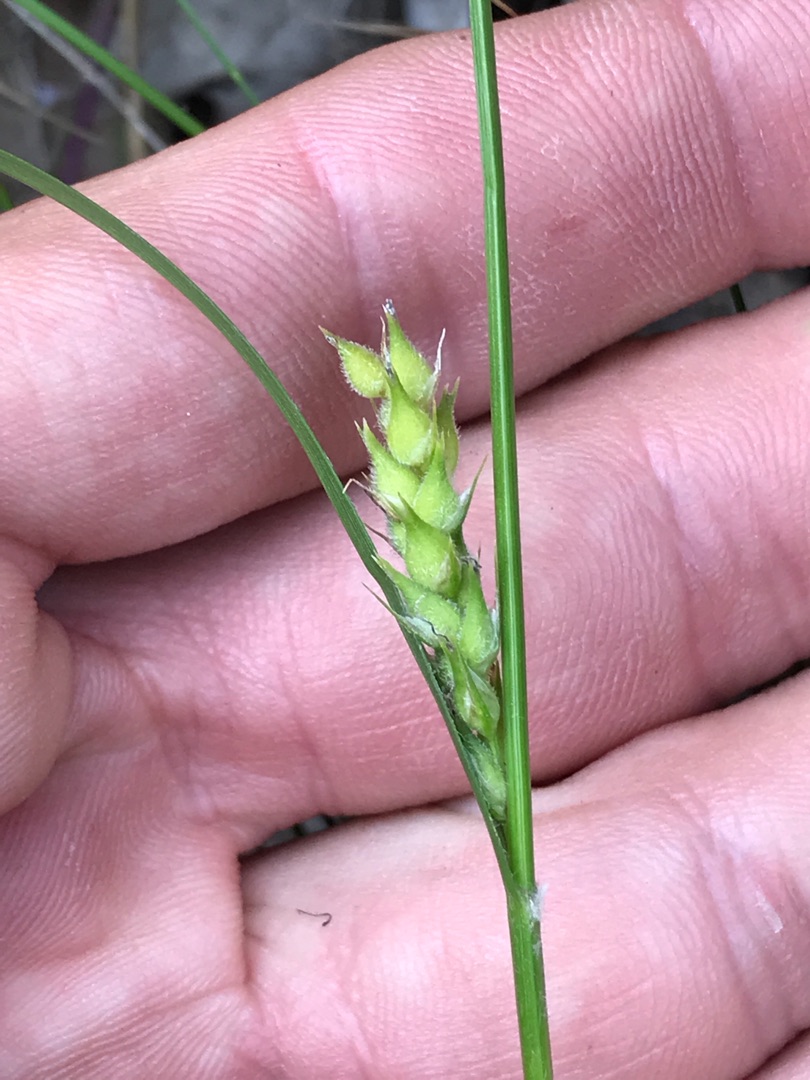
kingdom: Plantae
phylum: Tracheophyta
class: Liliopsida
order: Poales
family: Cyperaceae
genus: Carex
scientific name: Carex hirta
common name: Håret star
